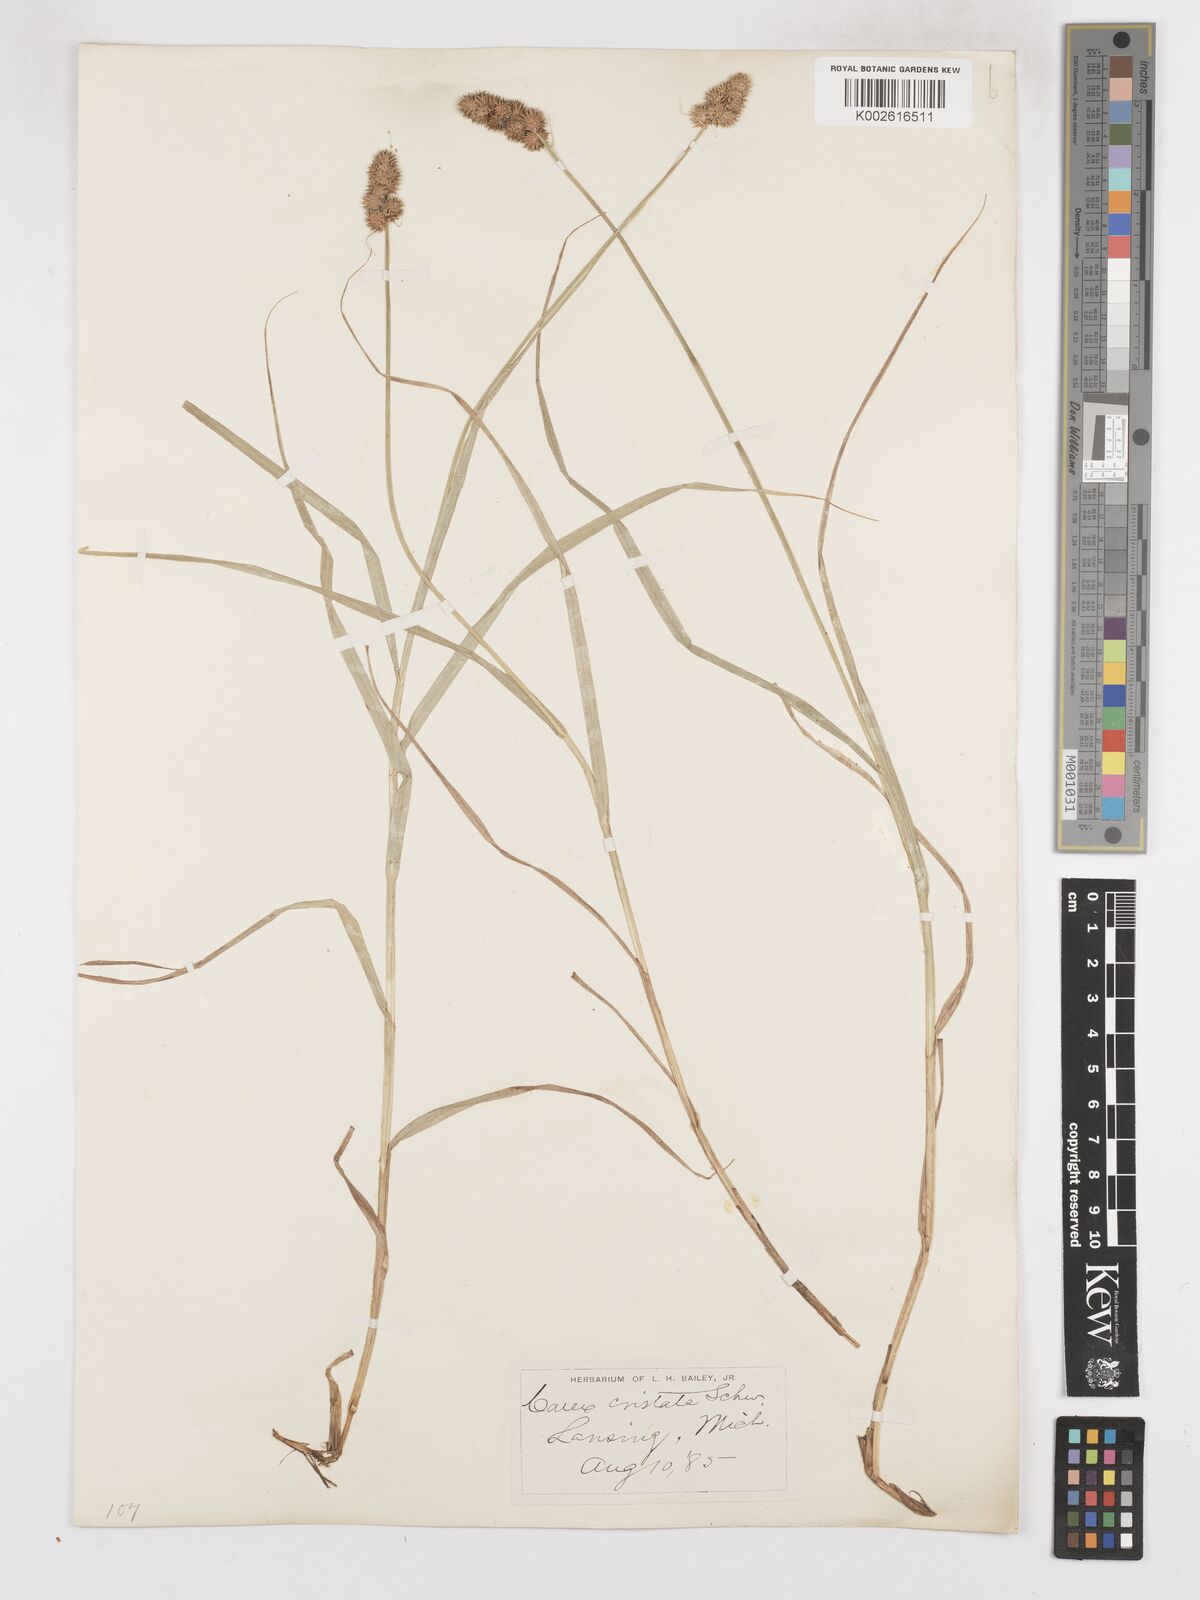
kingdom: Plantae
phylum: Tracheophyta
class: Liliopsida
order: Poales
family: Cyperaceae
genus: Carex
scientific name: Carex cristatella
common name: Crested oval sedge
